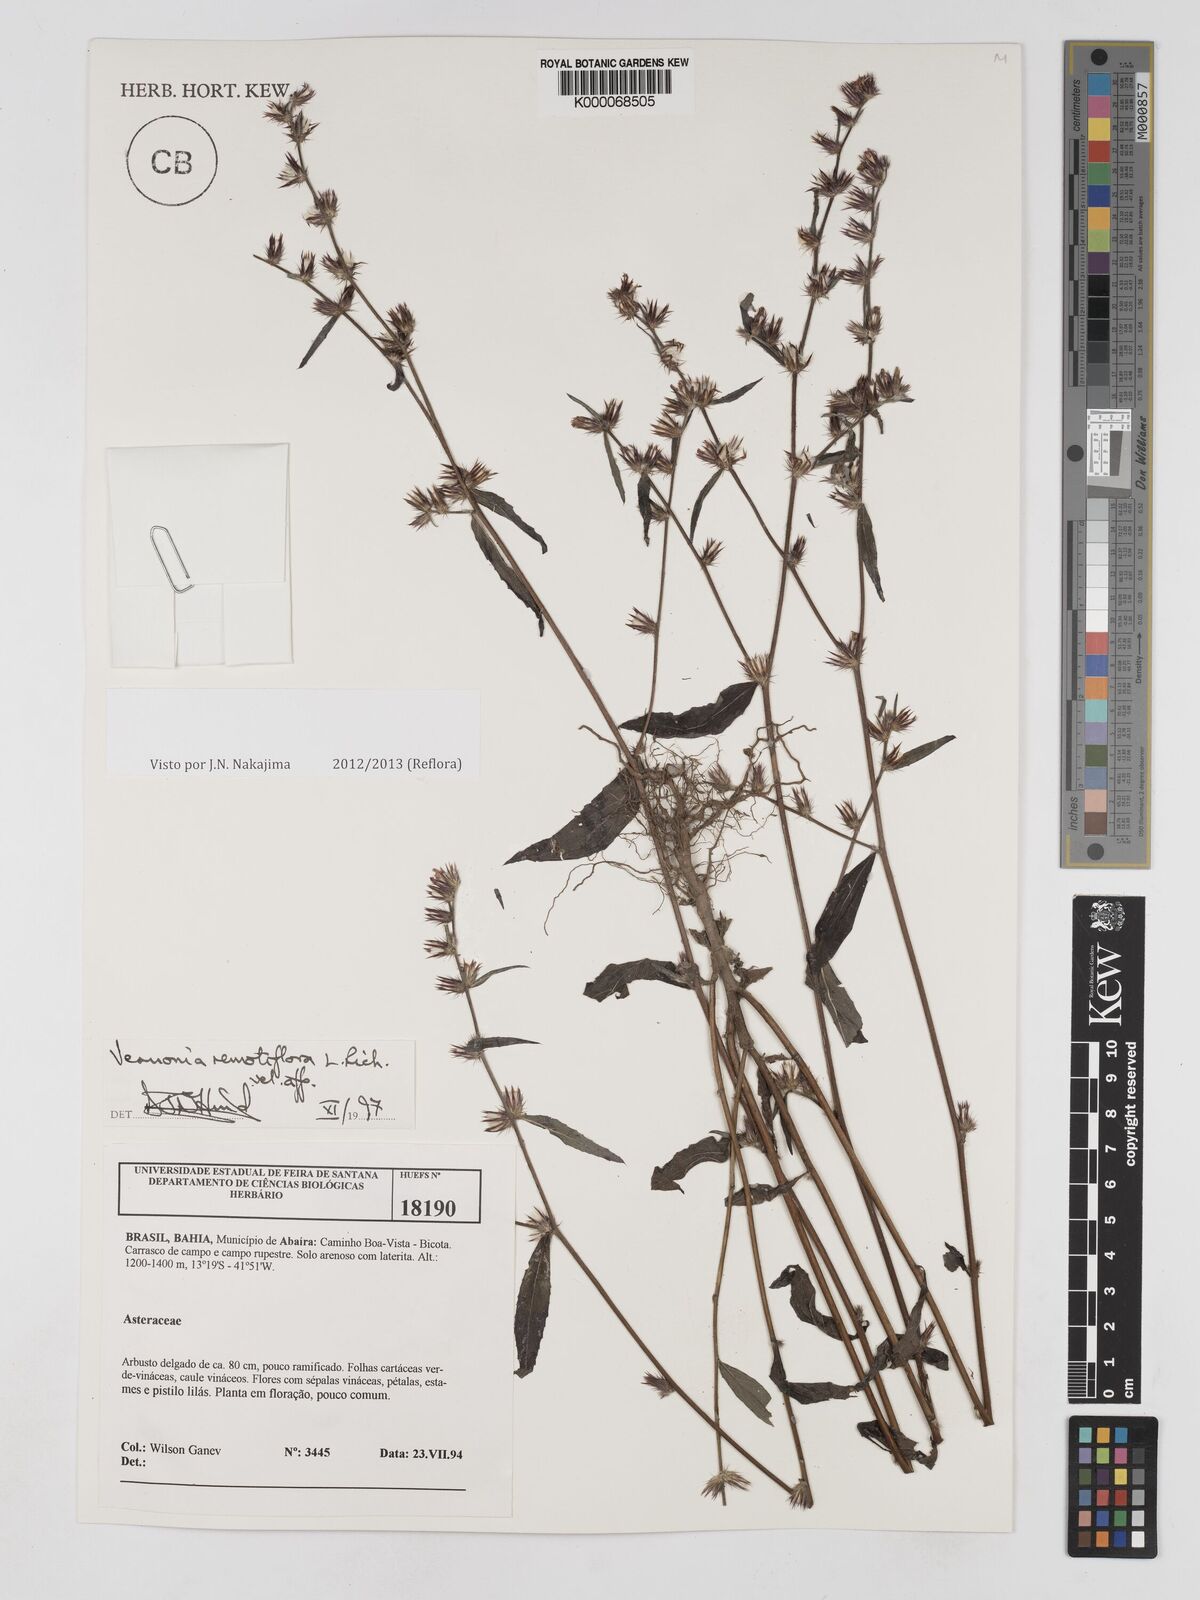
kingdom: Plantae
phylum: Tracheophyta
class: Magnoliopsida
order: Asterales
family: Asteraceae
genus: Lepidaploa
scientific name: Lepidaploa remotiflora
